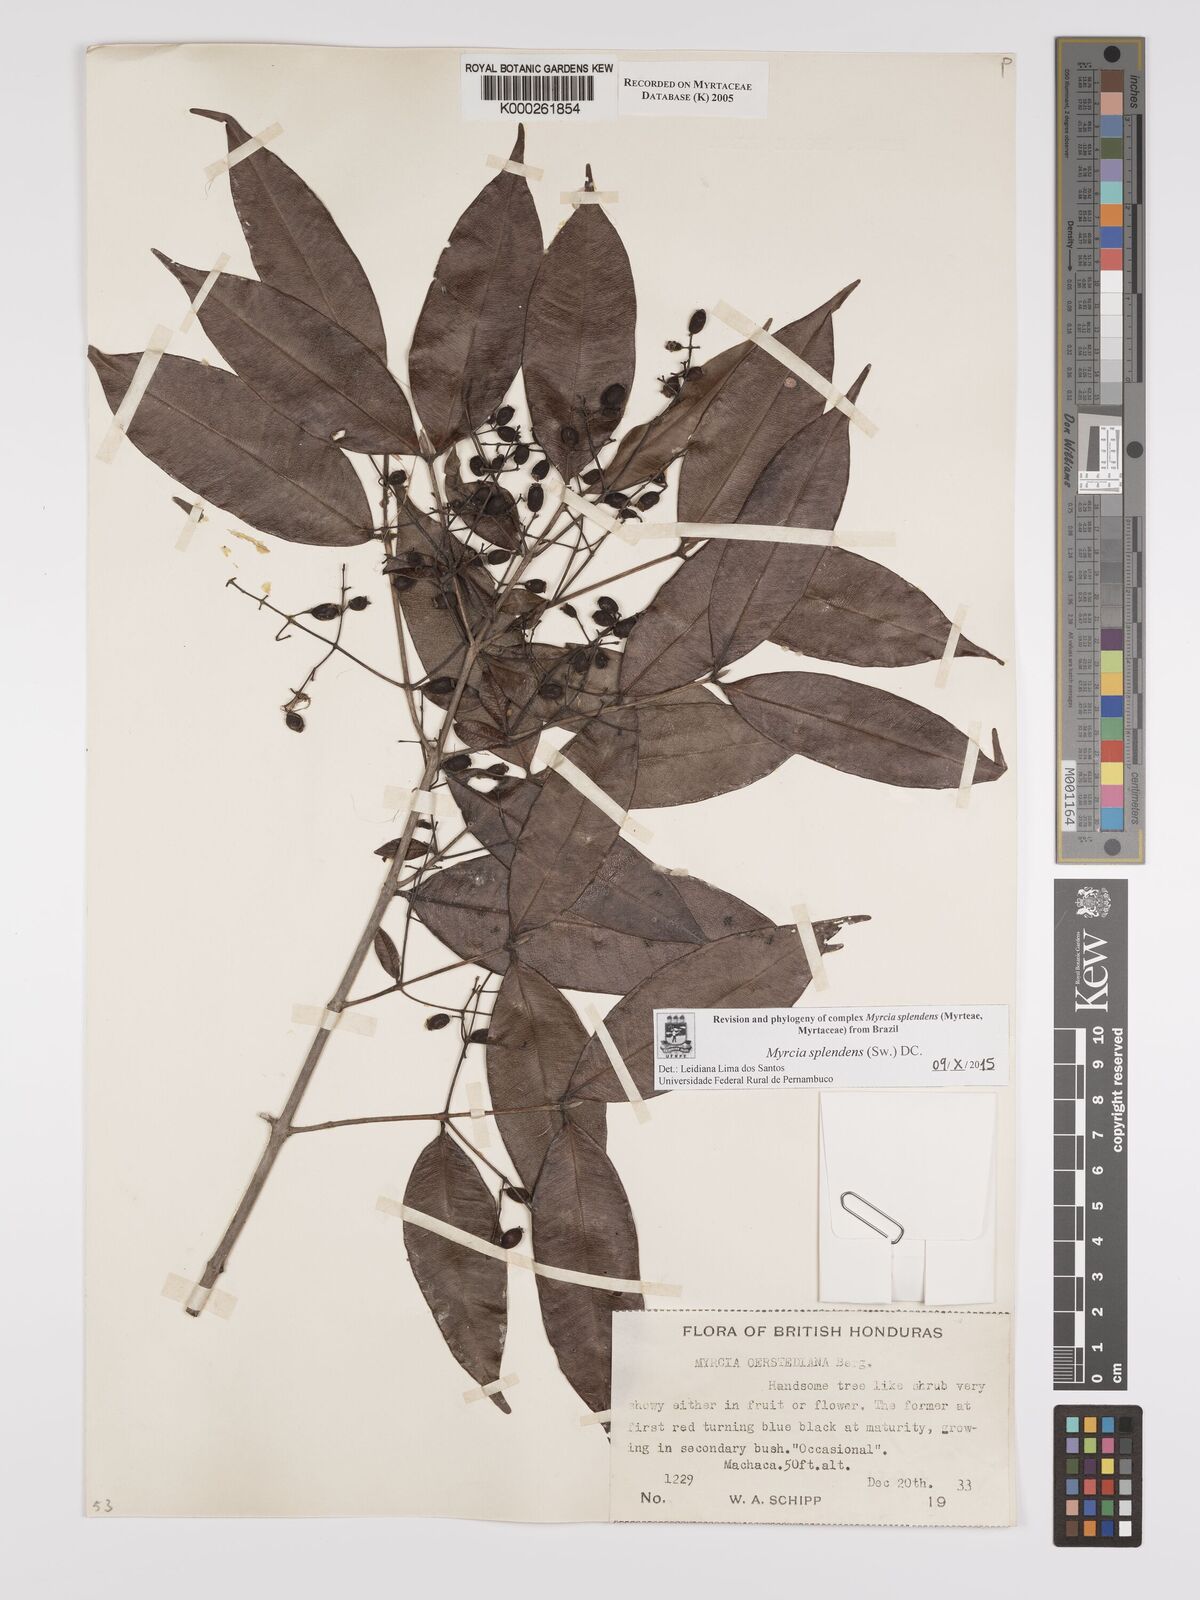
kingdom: Plantae
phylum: Tracheophyta
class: Magnoliopsida
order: Myrtales
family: Myrtaceae
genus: Myrcia
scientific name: Myrcia splendens
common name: Surinam cherry
